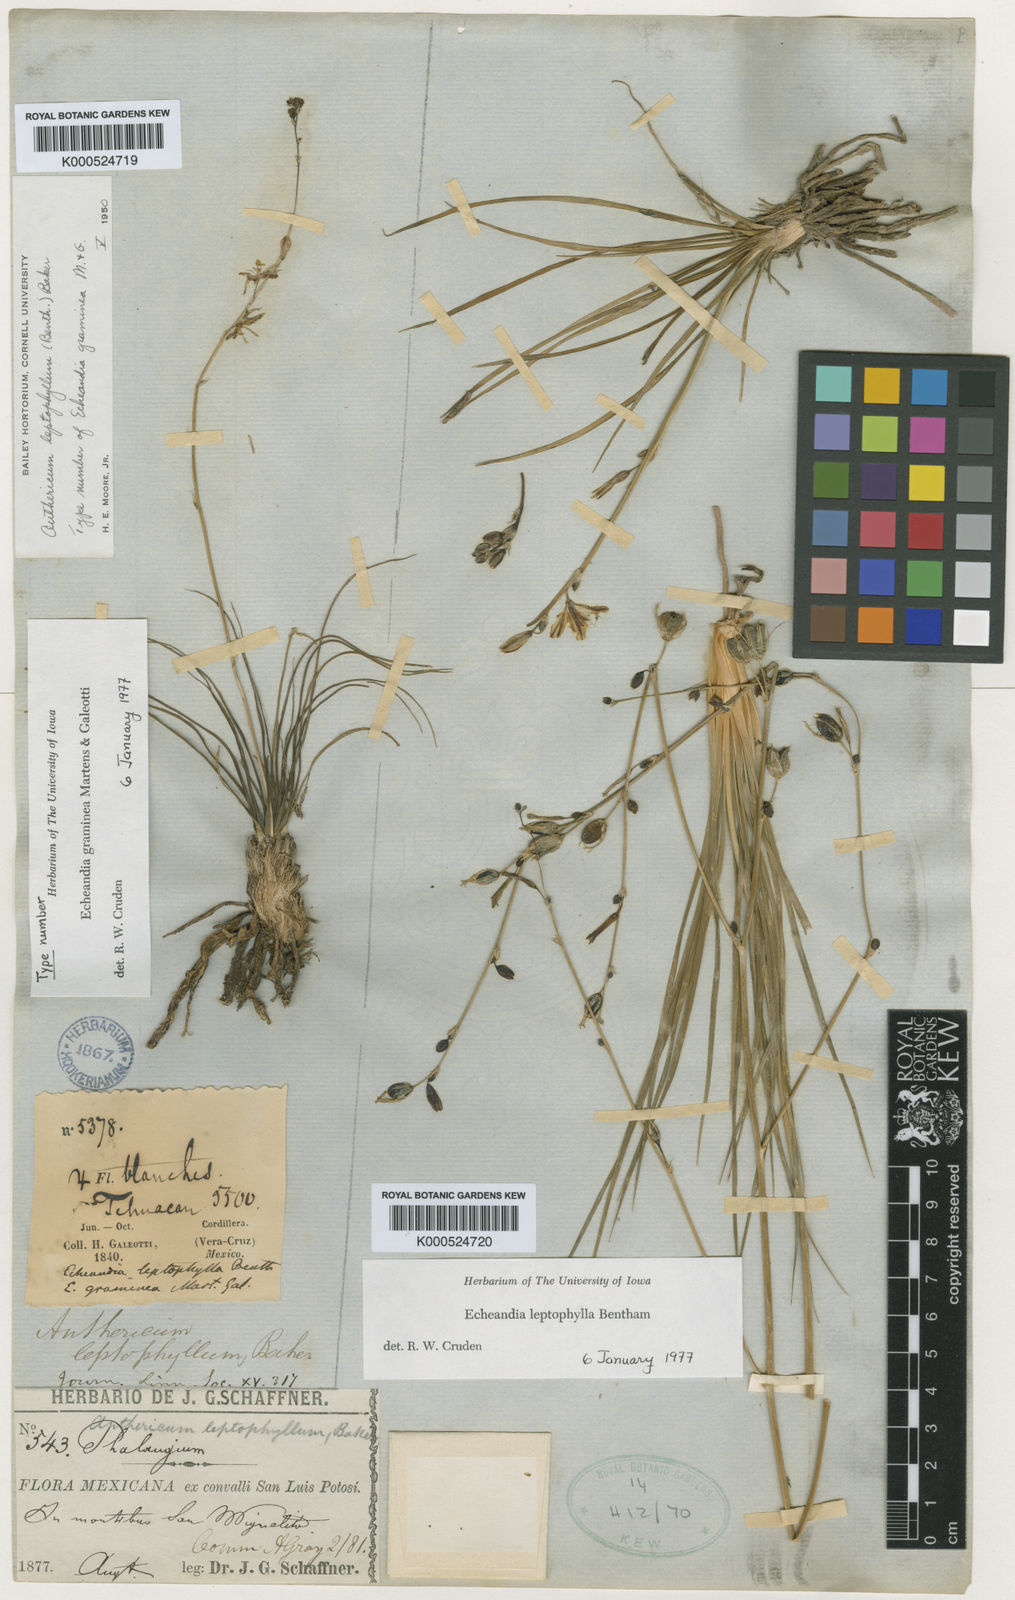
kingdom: Plantae
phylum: Tracheophyta
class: Liliopsida
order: Asparagales
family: Asparagaceae
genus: Echeandia
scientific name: Echeandia flavescens
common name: Amberlily
